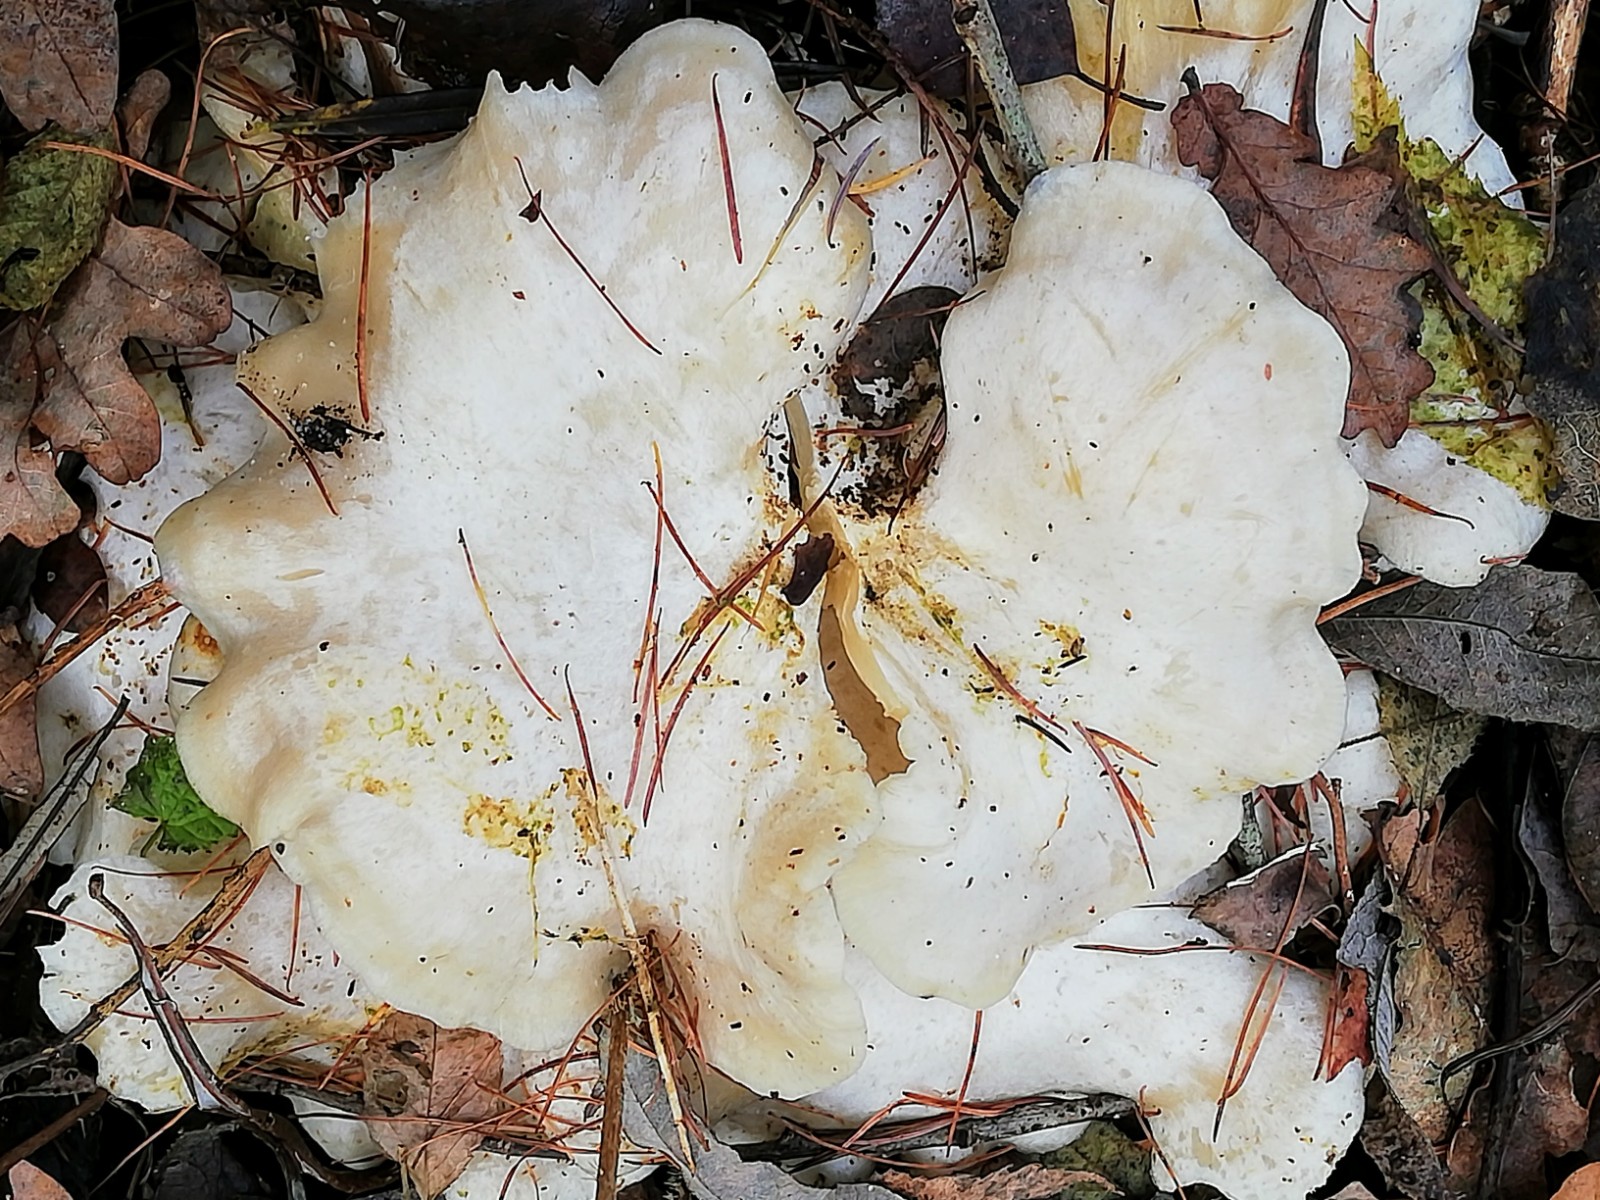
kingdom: Fungi
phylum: Basidiomycota
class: Agaricomycetes
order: Agaricales
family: Tricholomataceae
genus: Leucocybe
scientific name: Leucocybe connata
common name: knippe-tragthat
